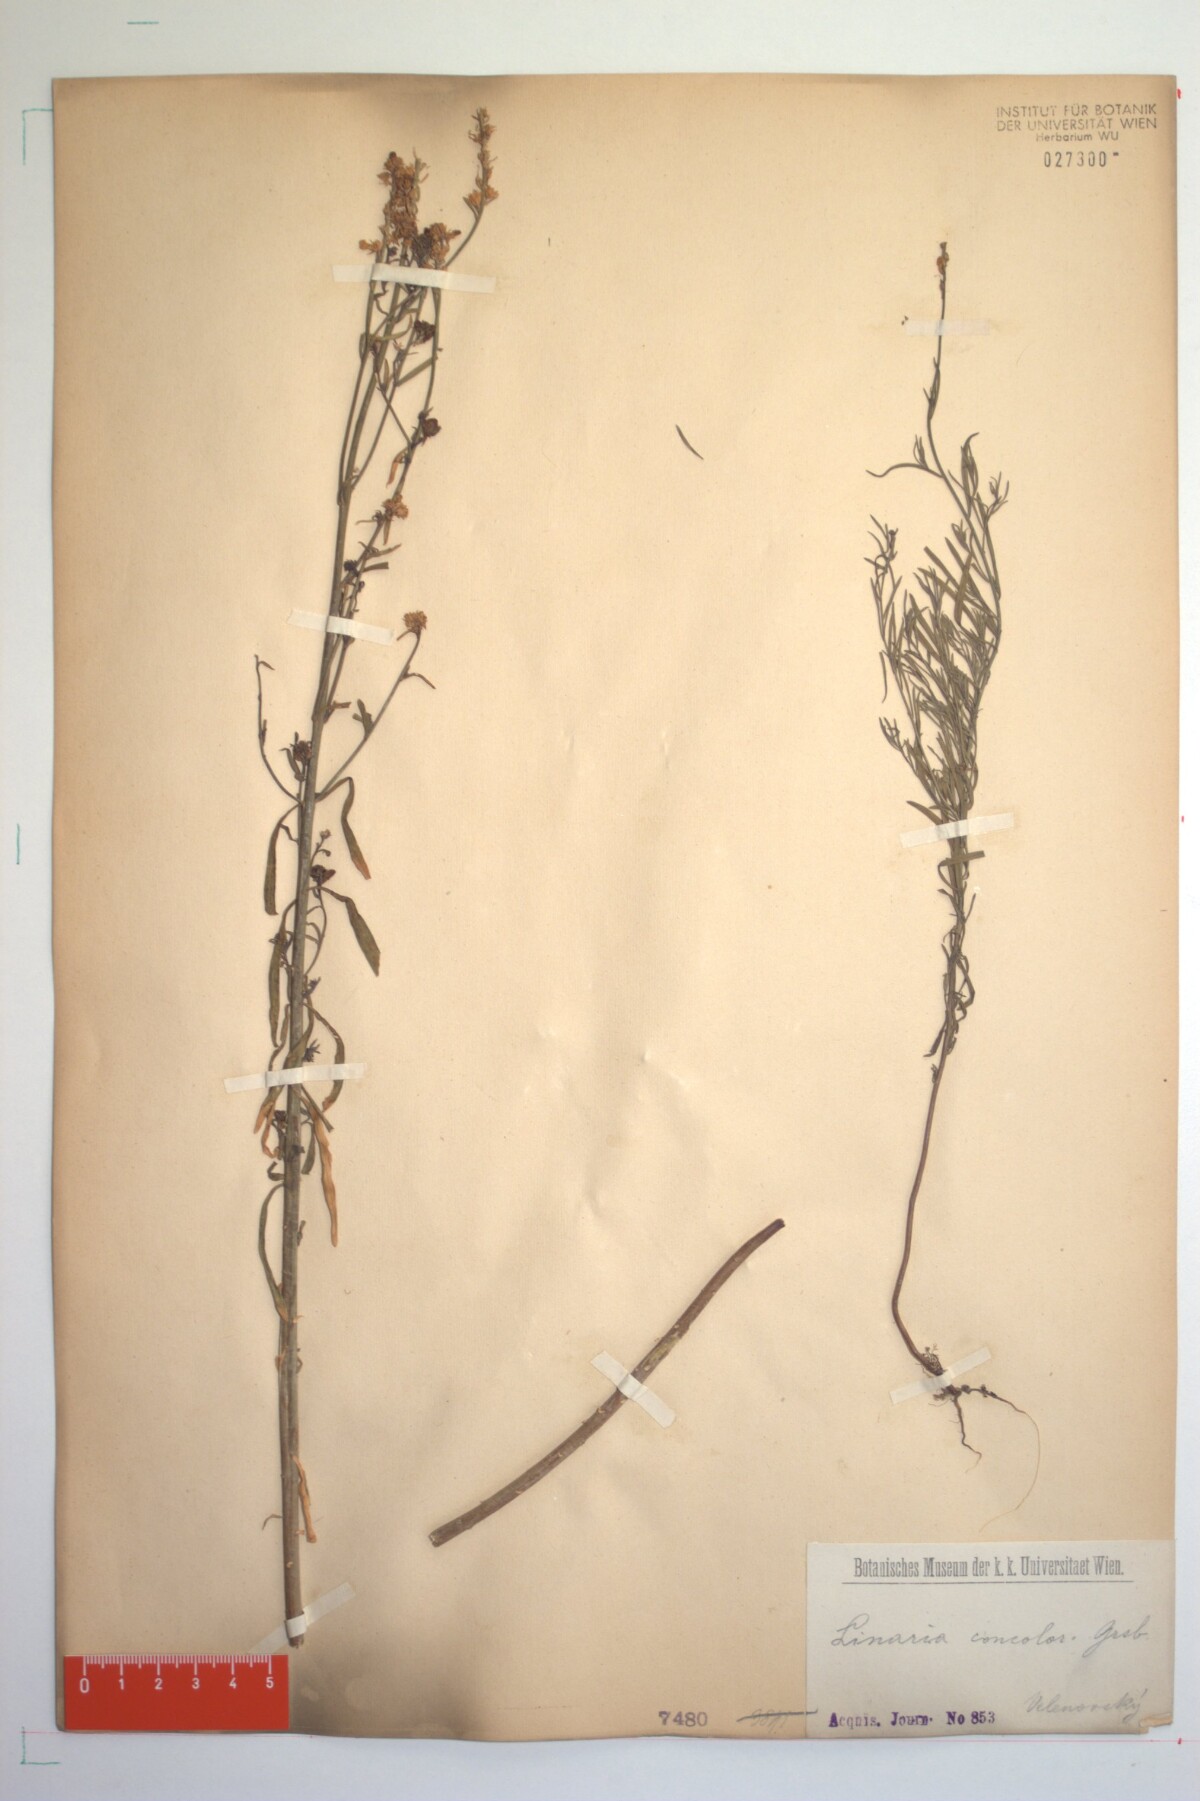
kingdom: Plantae
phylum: Tracheophyta
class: Magnoliopsida
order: Lamiales
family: Plantaginaceae
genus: Linaria
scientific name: Linaria genistifolia
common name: Broomleaf toadflax
